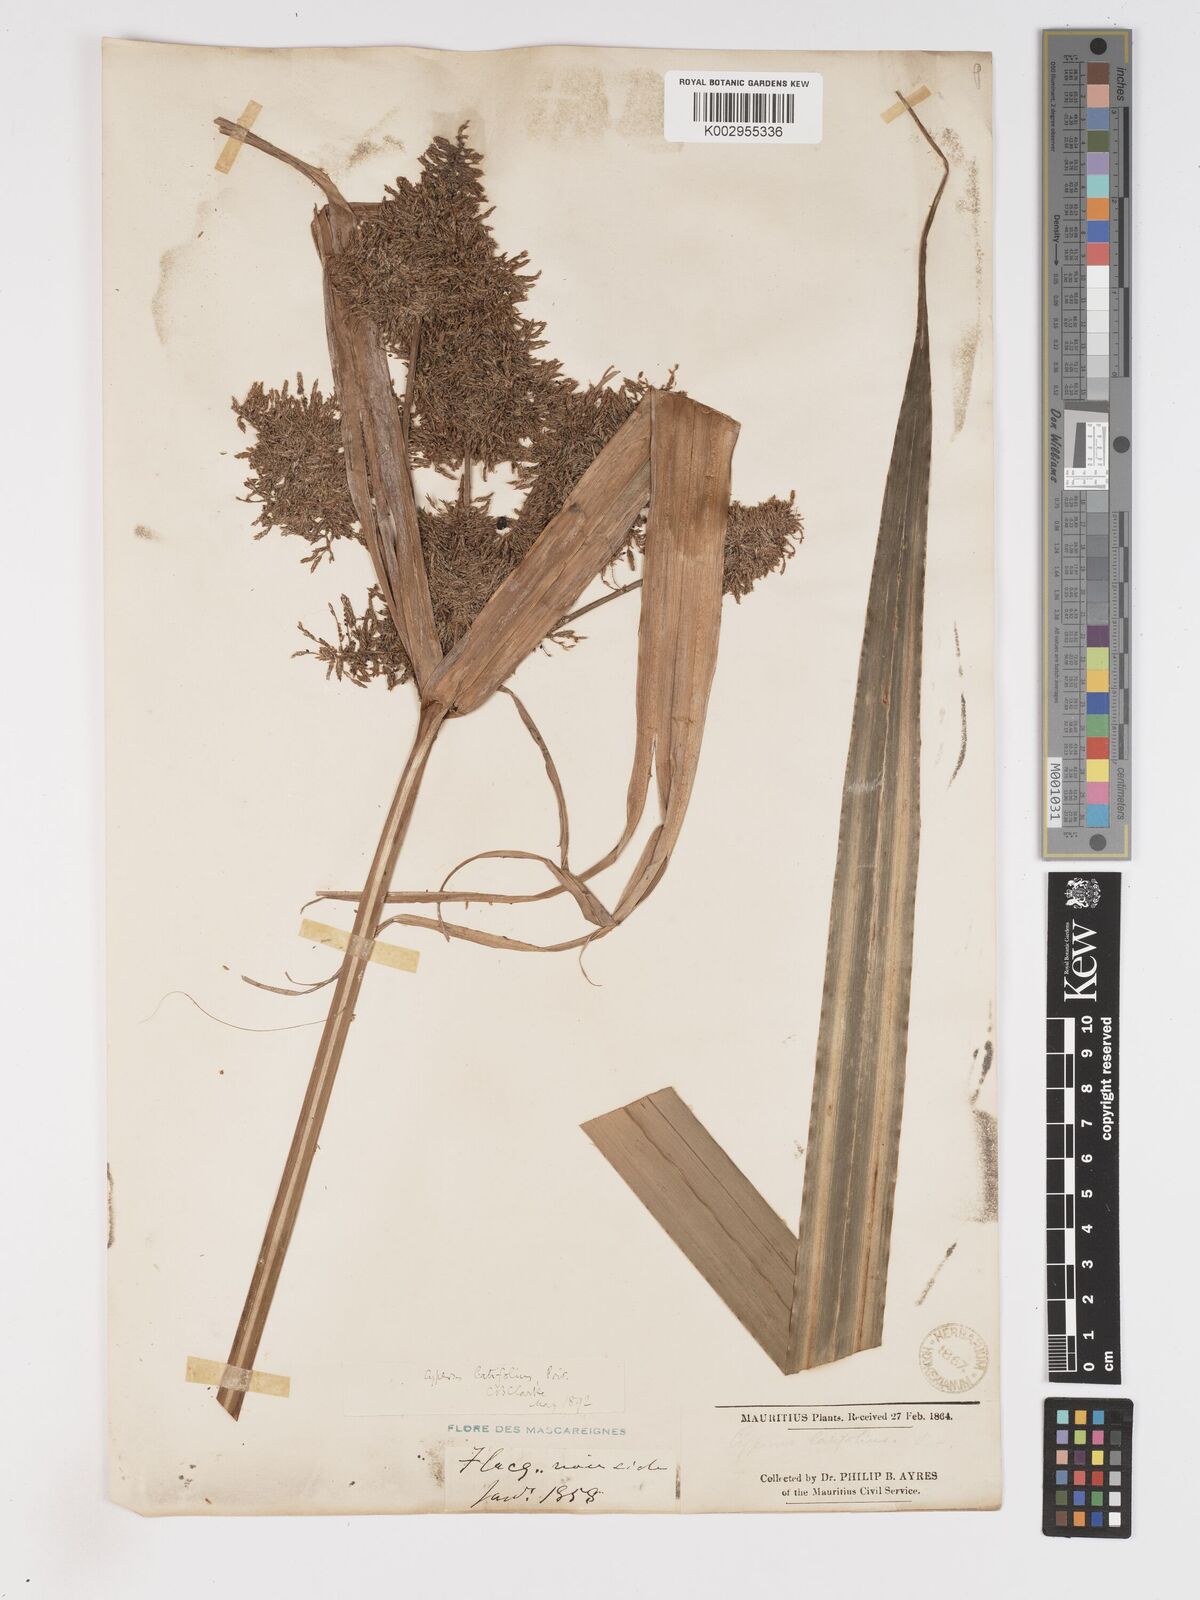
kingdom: Plantae
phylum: Tracheophyta
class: Liliopsida
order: Poales
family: Cyperaceae
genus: Cyperus
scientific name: Cyperus latifolius
